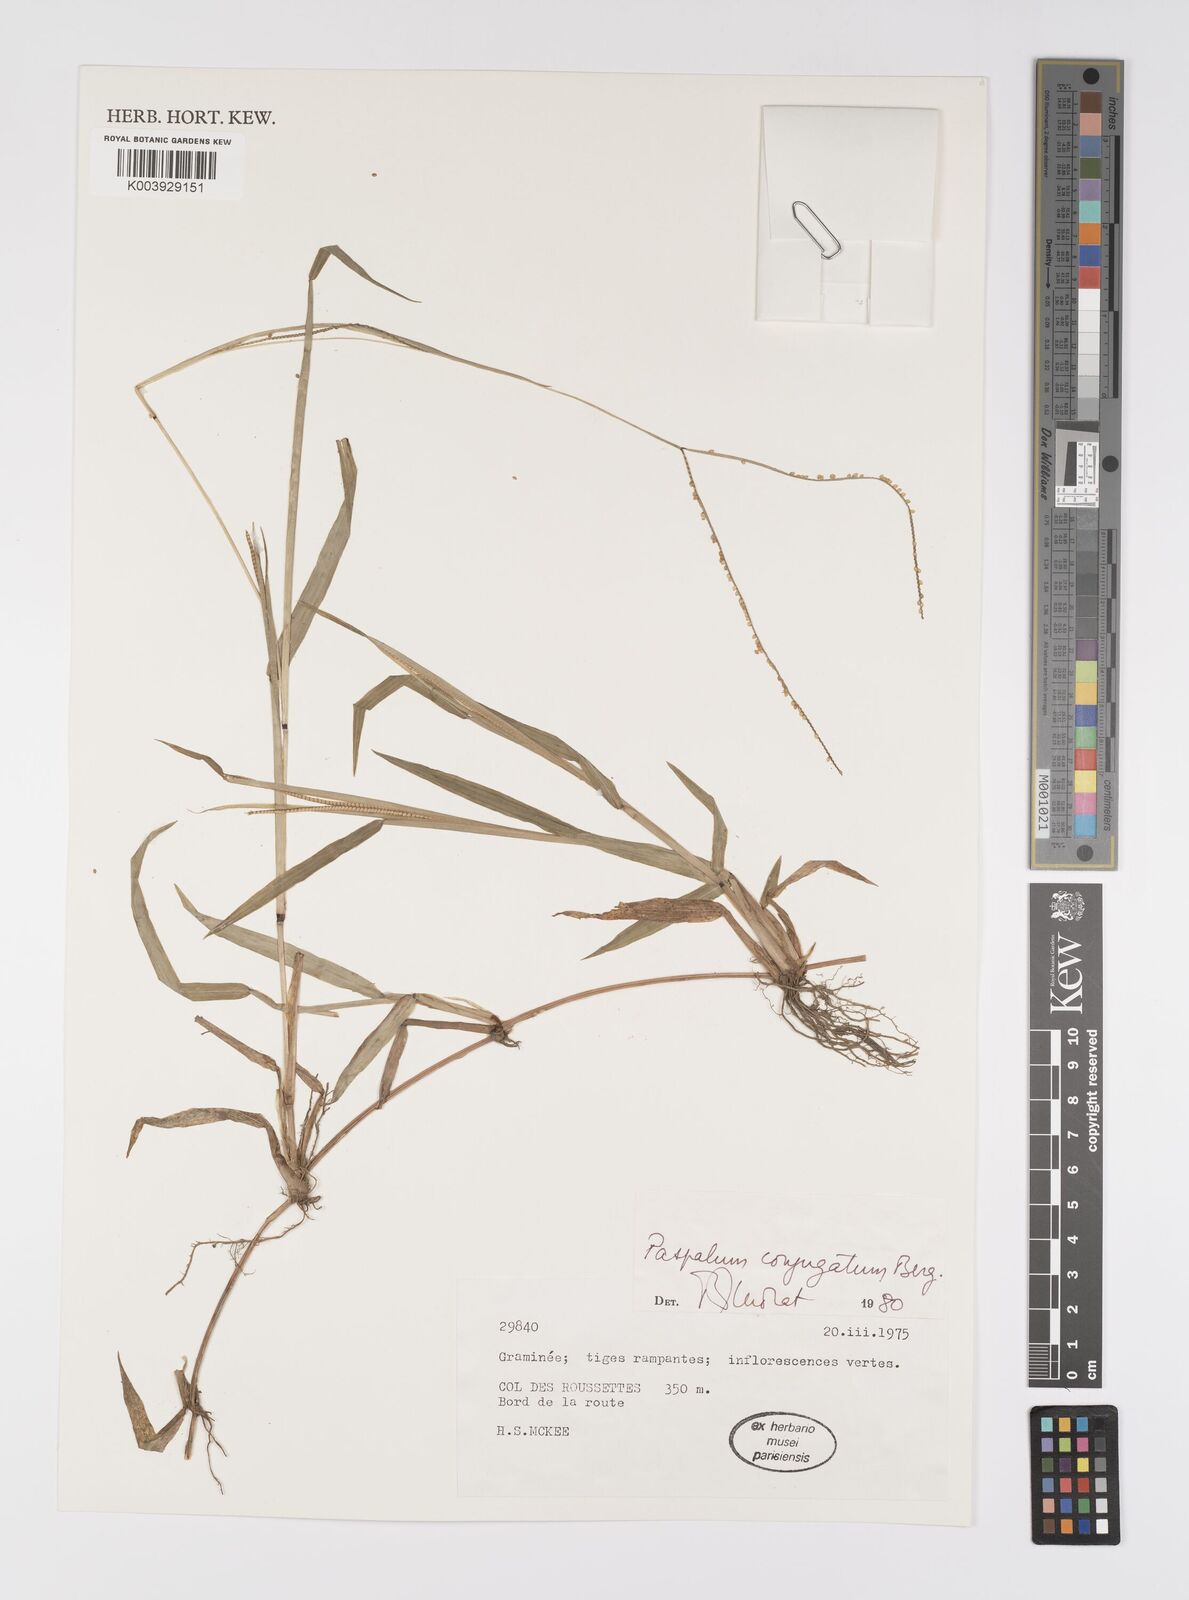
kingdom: Plantae
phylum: Tracheophyta
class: Liliopsida
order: Poales
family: Poaceae
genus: Paspalum
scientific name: Paspalum conjugatum
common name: Hilograss
